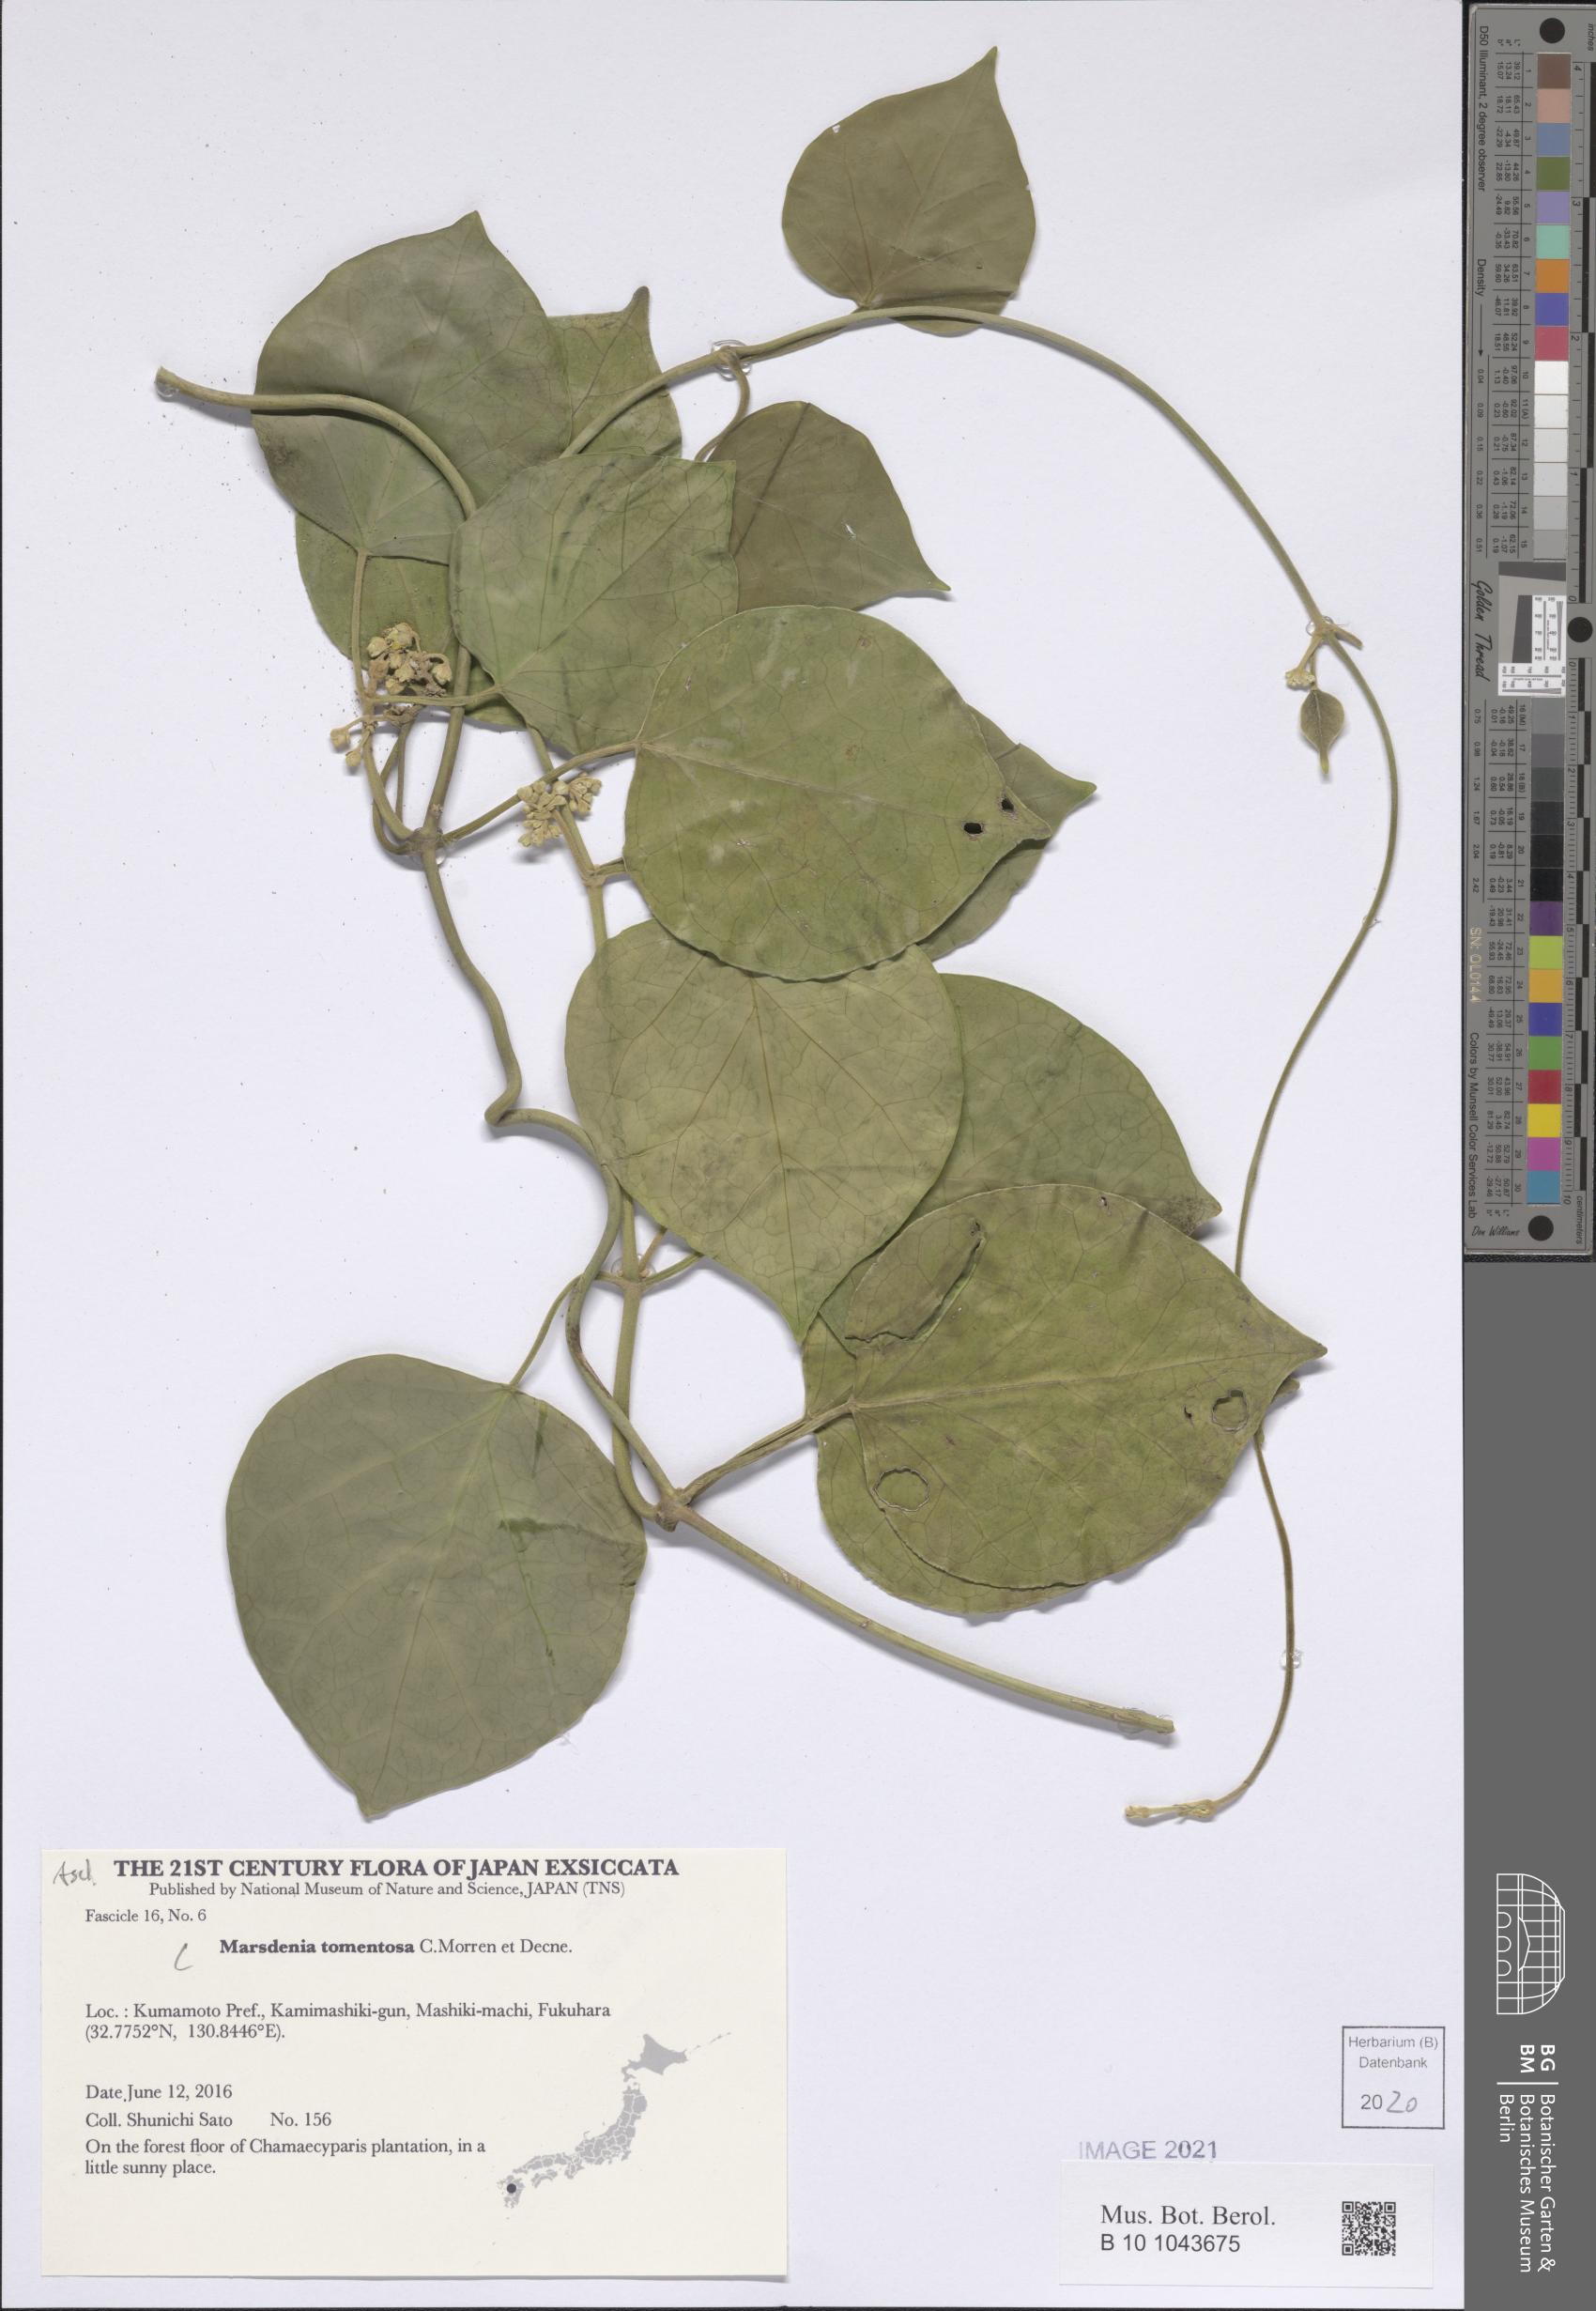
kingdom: Plantae
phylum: Tracheophyta
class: Magnoliopsida
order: Gentianales
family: Apocynaceae
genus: Sinomarsdenia
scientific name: Sinomarsdenia tomentosa
